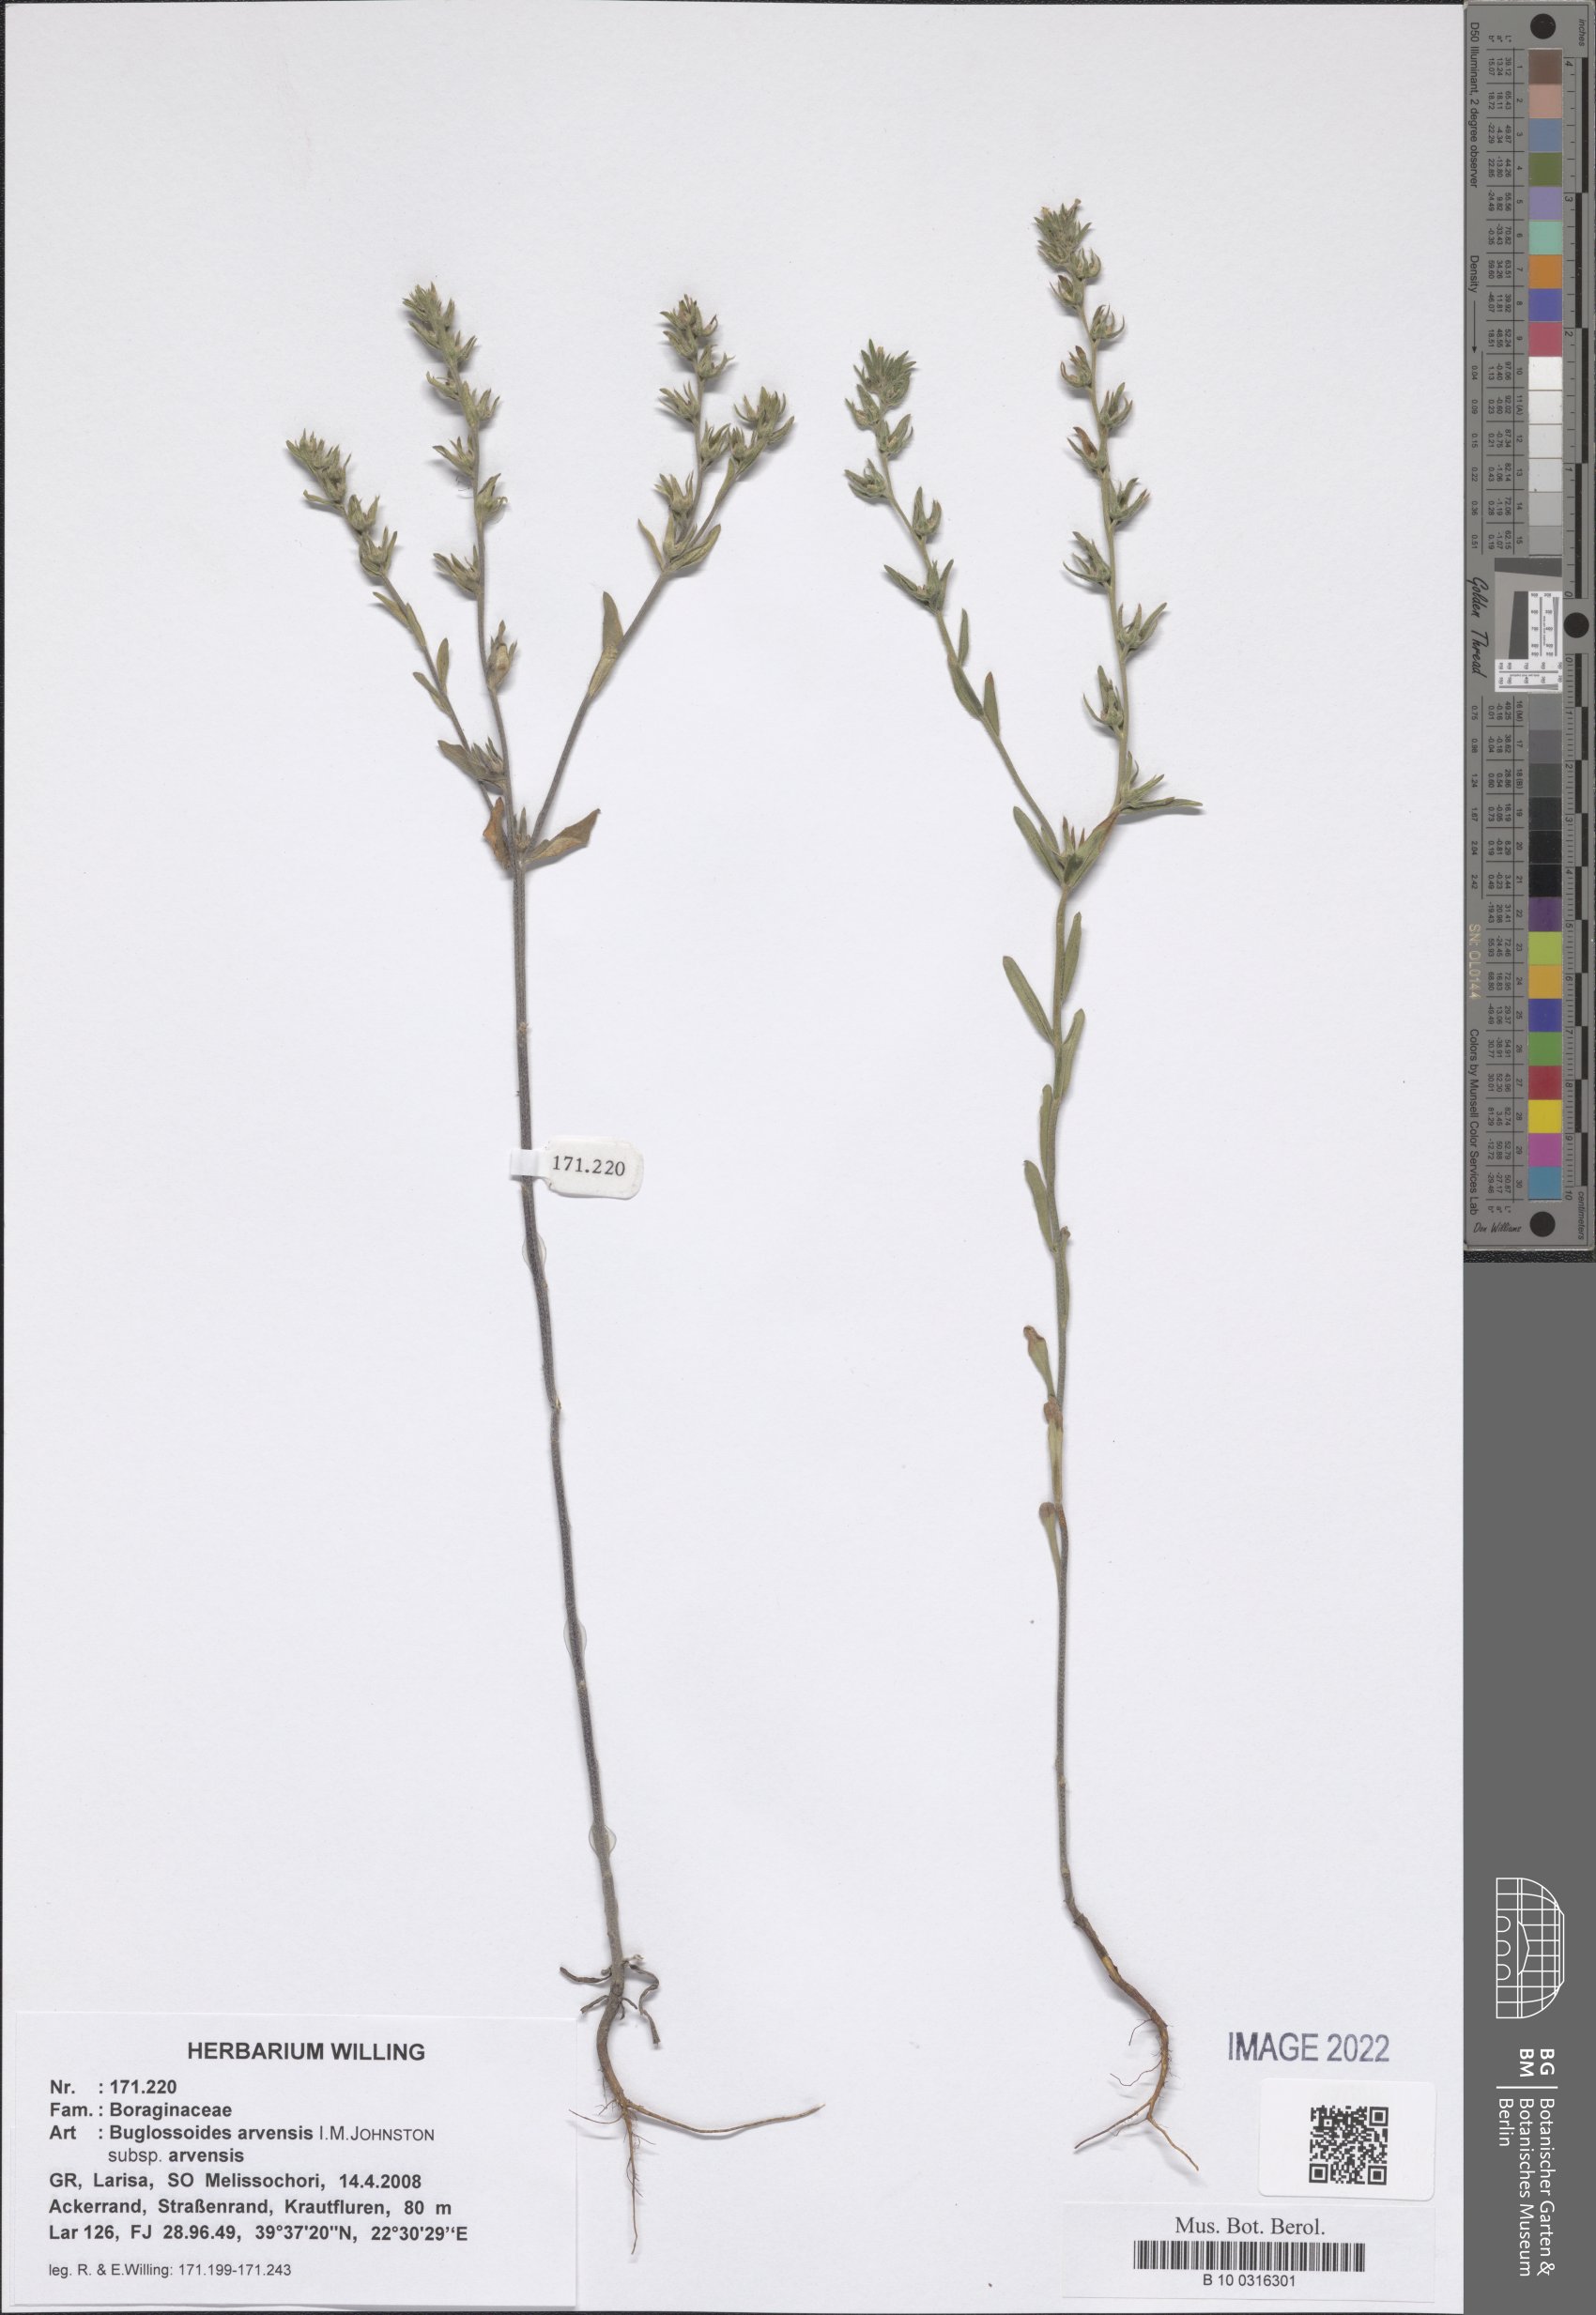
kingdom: Plantae
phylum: Tracheophyta
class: Magnoliopsida
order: Boraginales
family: Boraginaceae
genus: Buglossoides
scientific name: Buglossoides arvensis
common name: Corn gromwell
